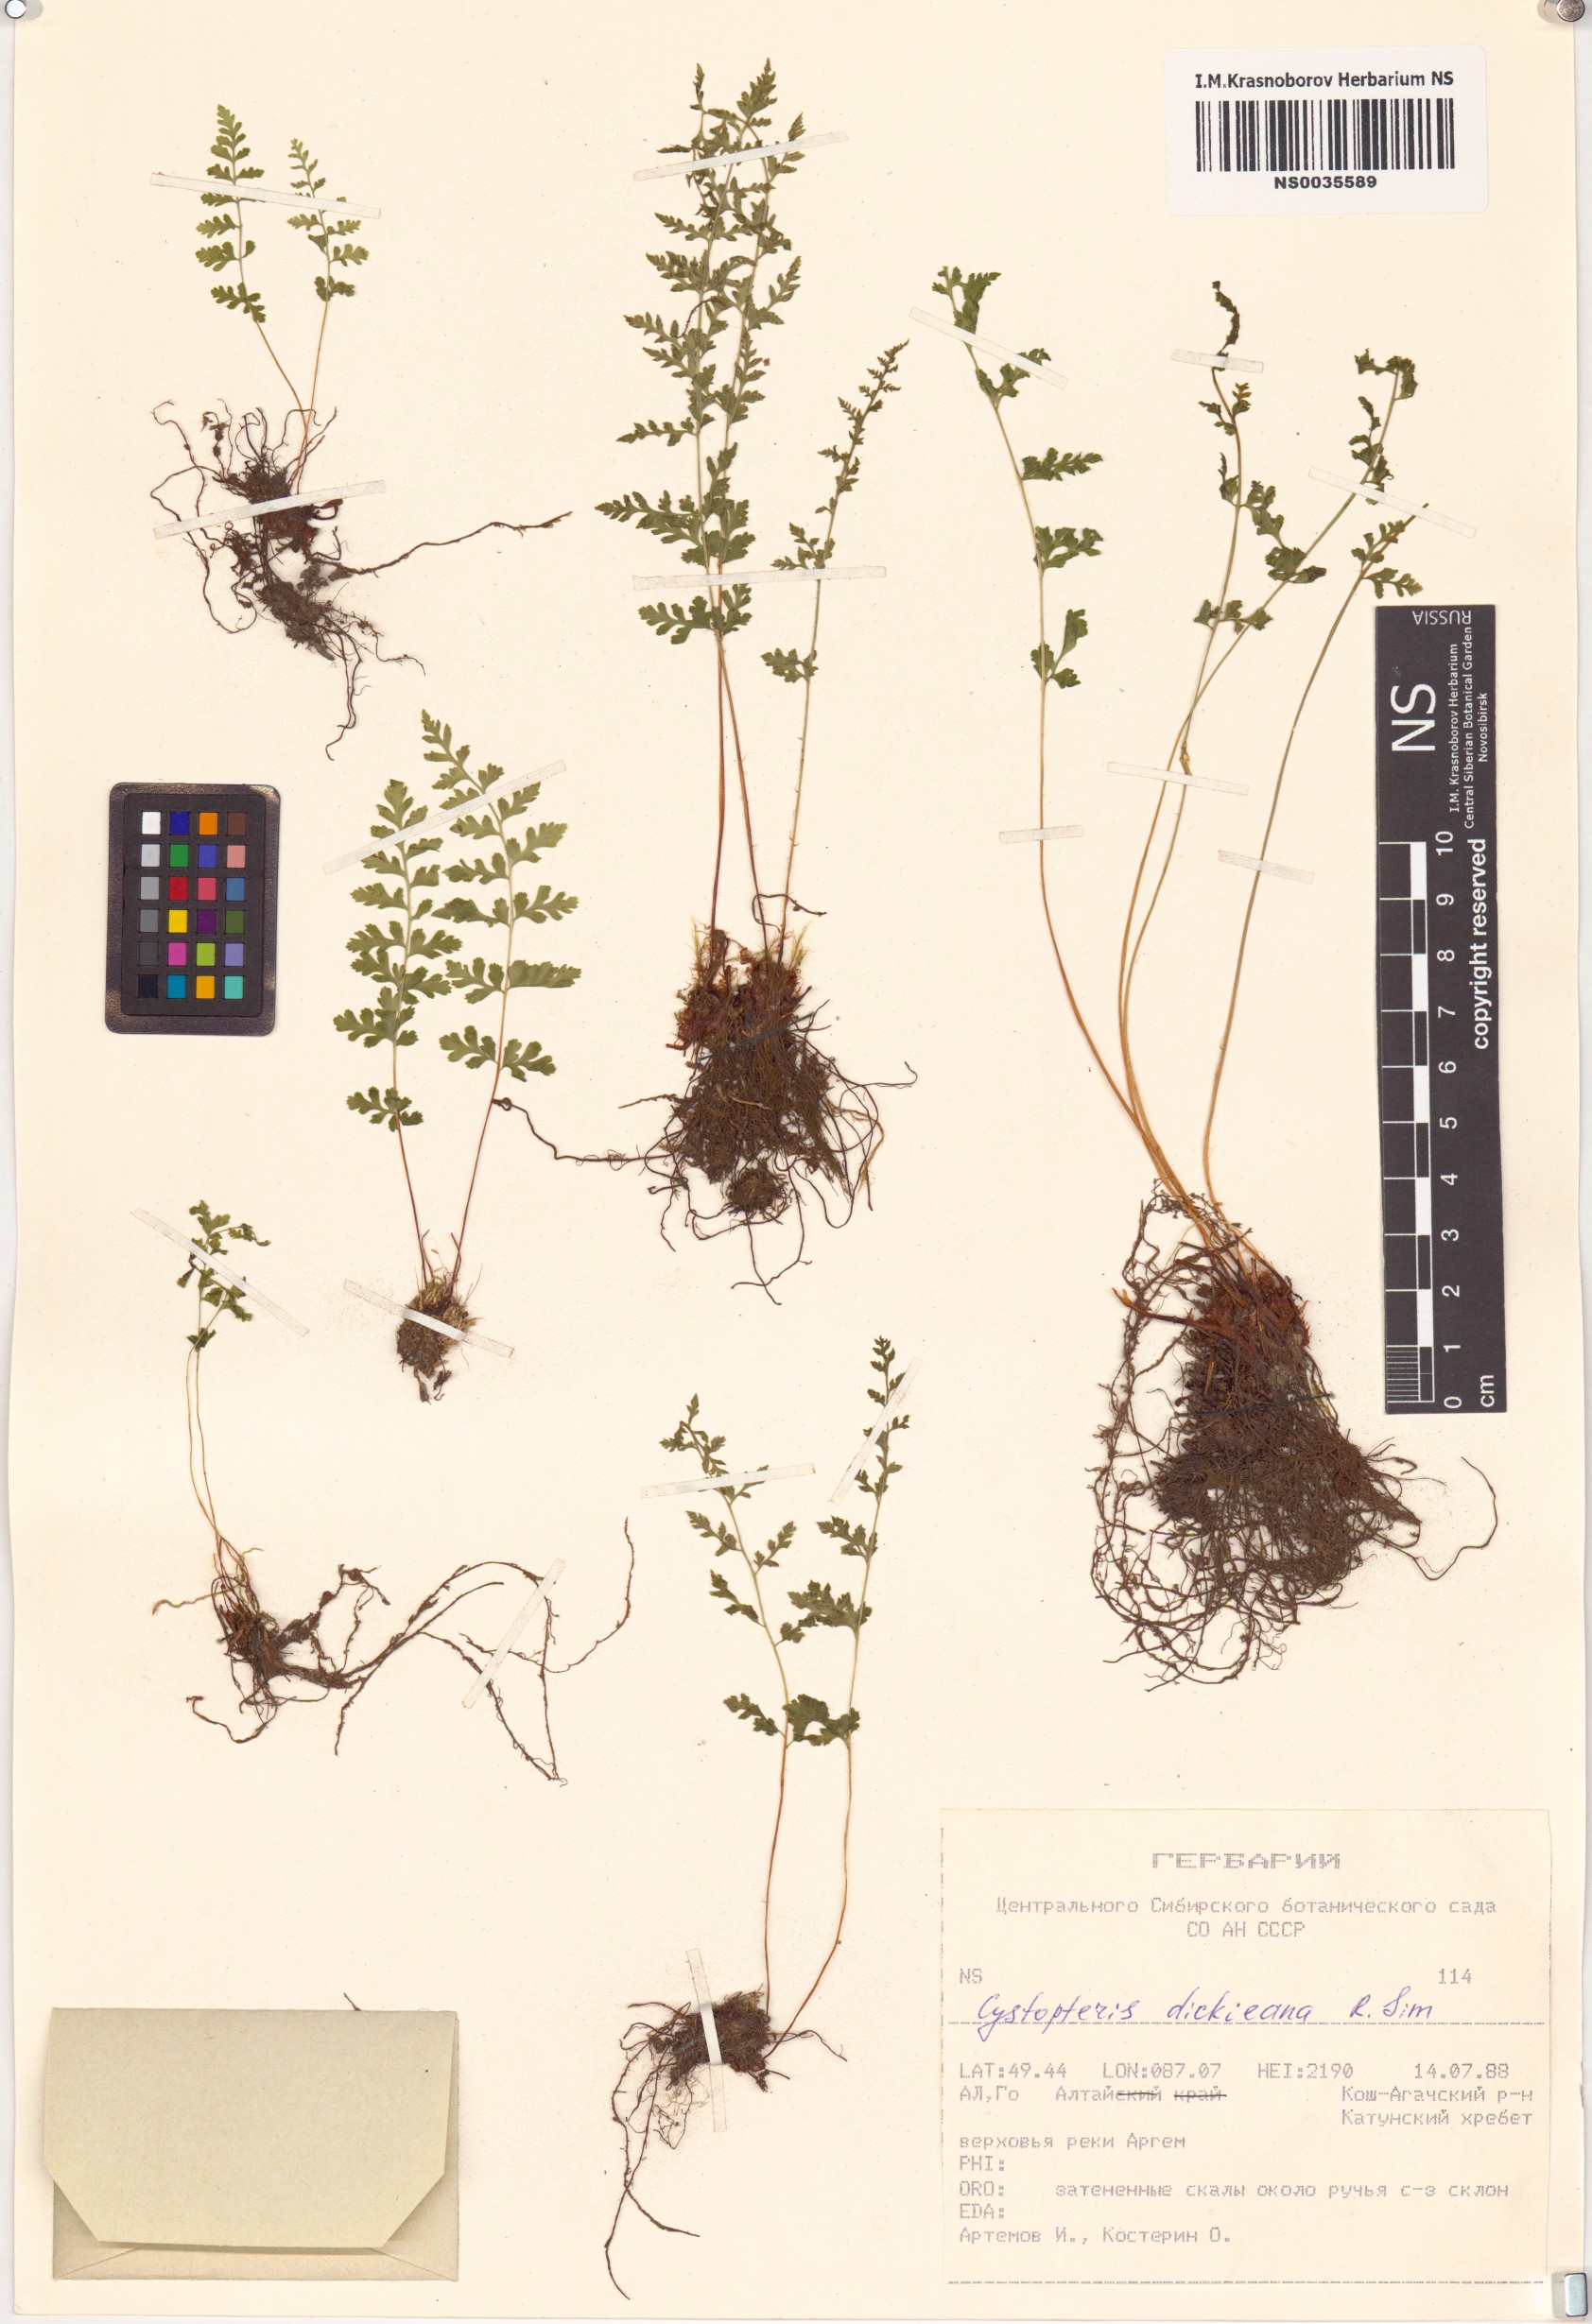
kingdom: Plantae
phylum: Tracheophyta
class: Polypodiopsida
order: Polypodiales
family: Cystopteridaceae
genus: Cystopteris
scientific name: Cystopteris dickieana
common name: Dickie's bladder-fern
